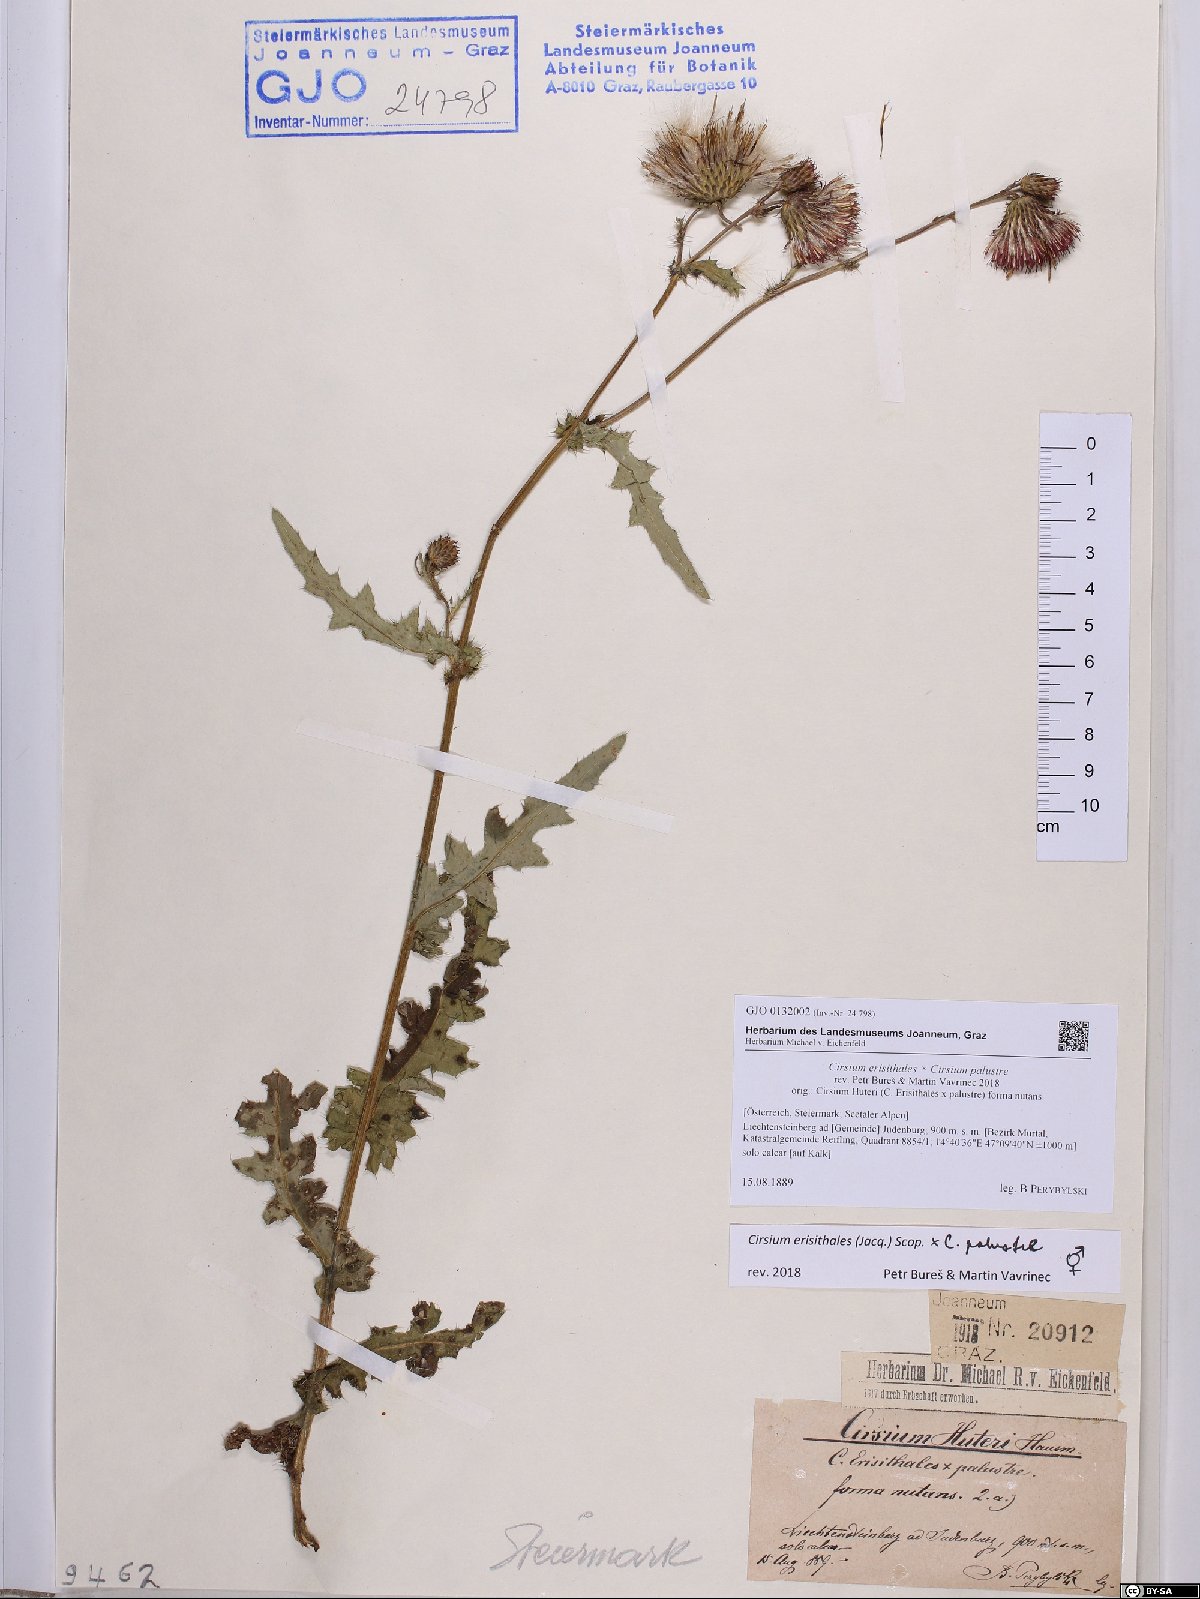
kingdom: Plantae
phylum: Tracheophyta
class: Magnoliopsida
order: Asterales
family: Asteraceae
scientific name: Asteraceae
